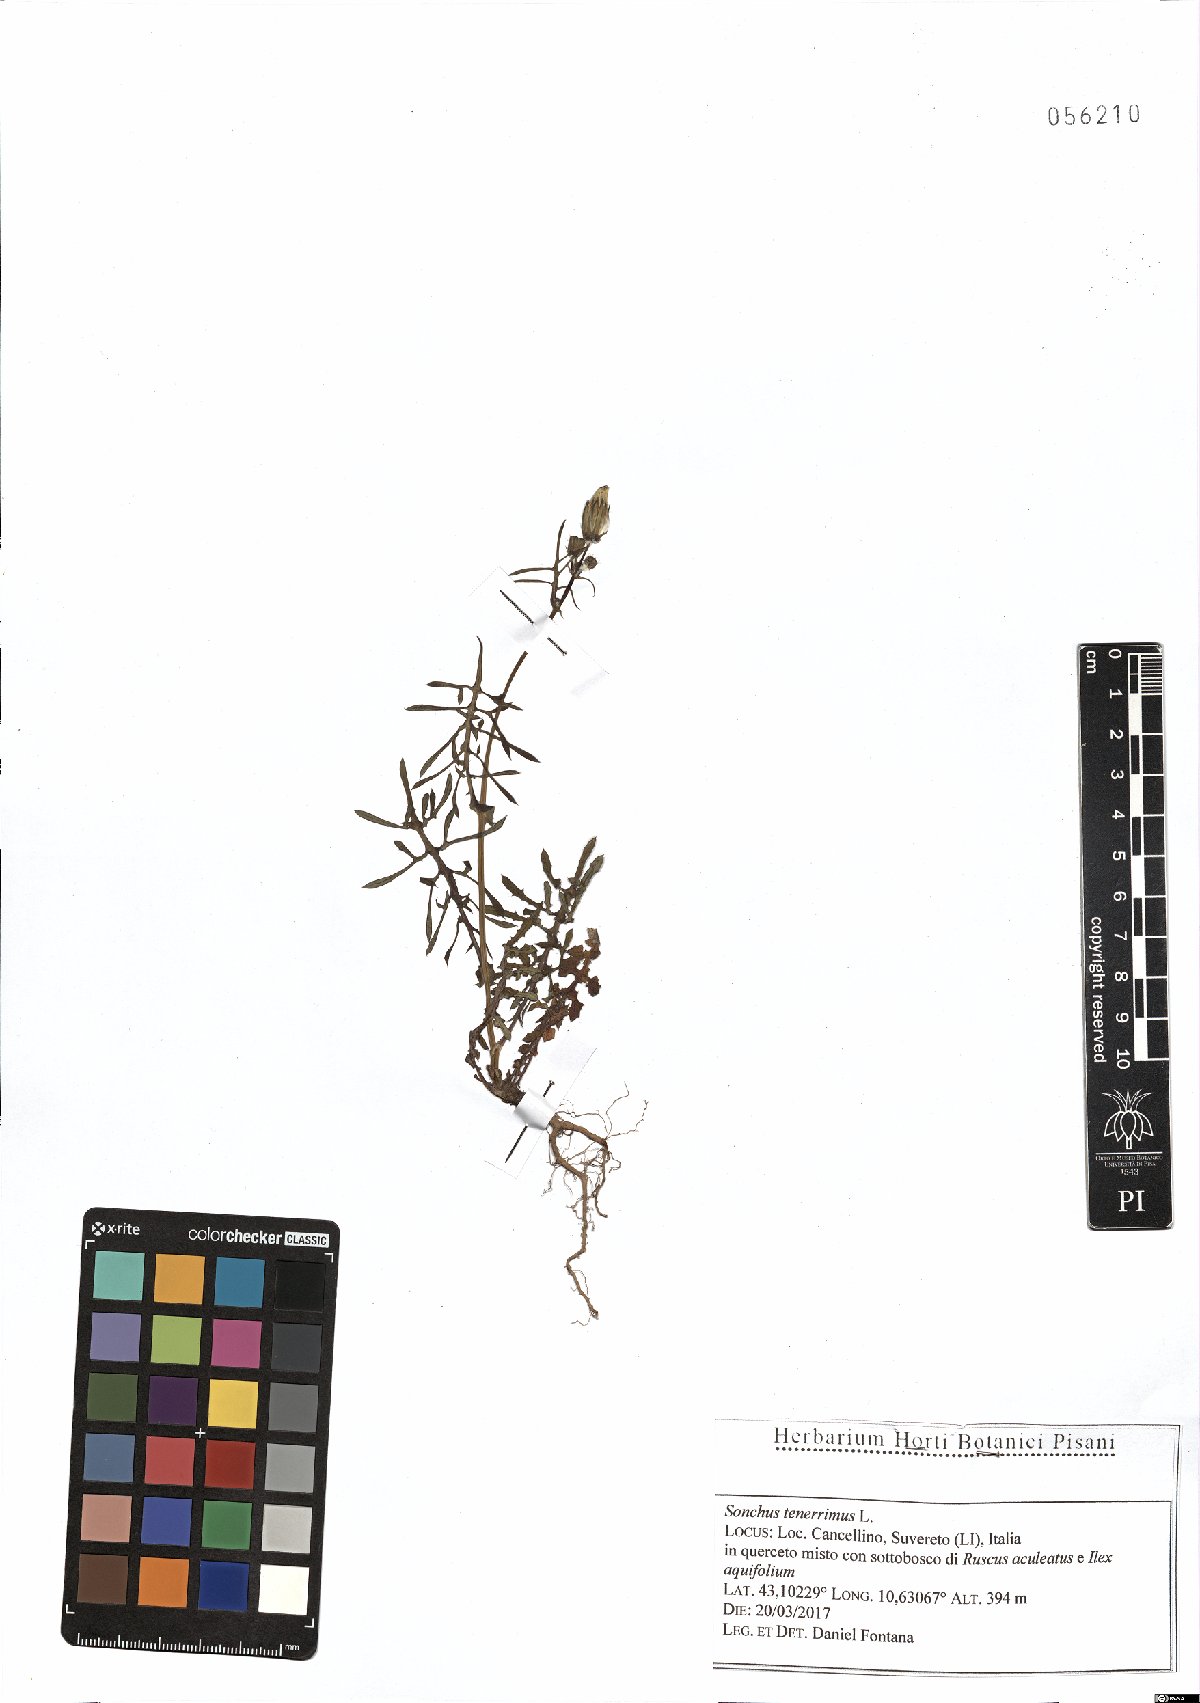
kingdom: Plantae
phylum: Tracheophyta
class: Magnoliopsida
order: Asterales
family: Asteraceae
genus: Sonchus
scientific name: Sonchus tenerrimus
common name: Clammy sowthistle
